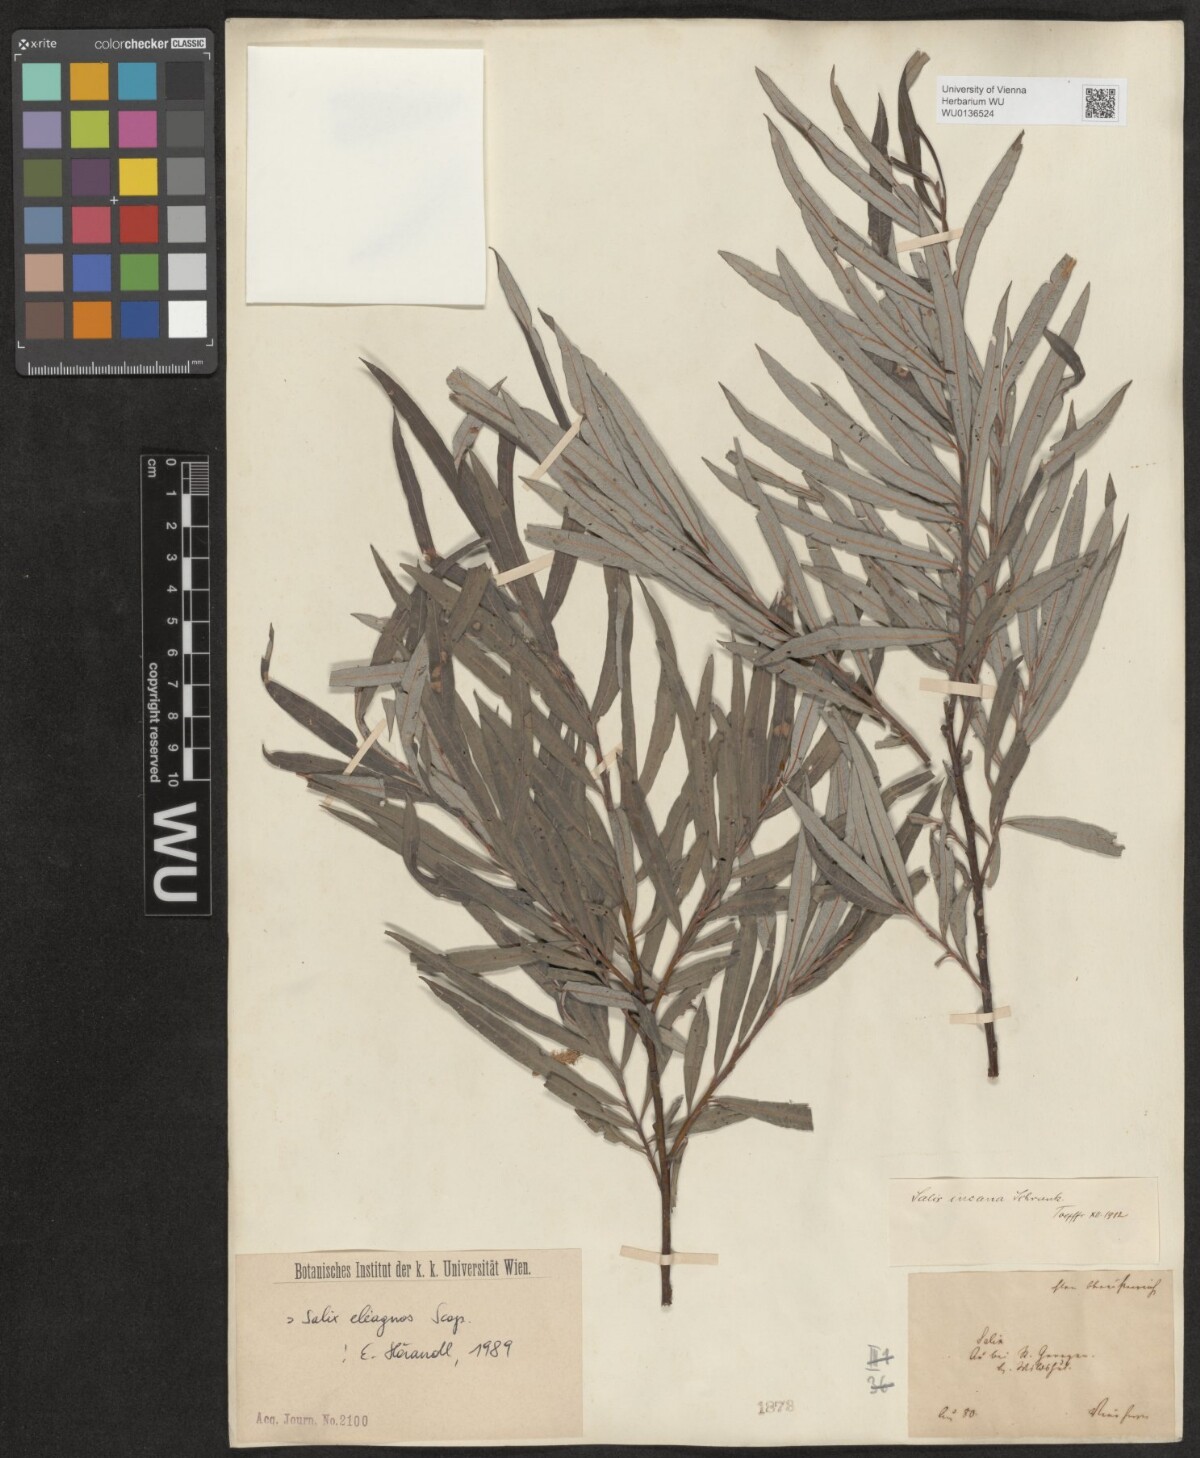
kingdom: Plantae
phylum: Tracheophyta
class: Magnoliopsida
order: Malpighiales
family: Salicaceae
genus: Salix
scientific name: Salix eleagnos
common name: Elaeagnus willow
